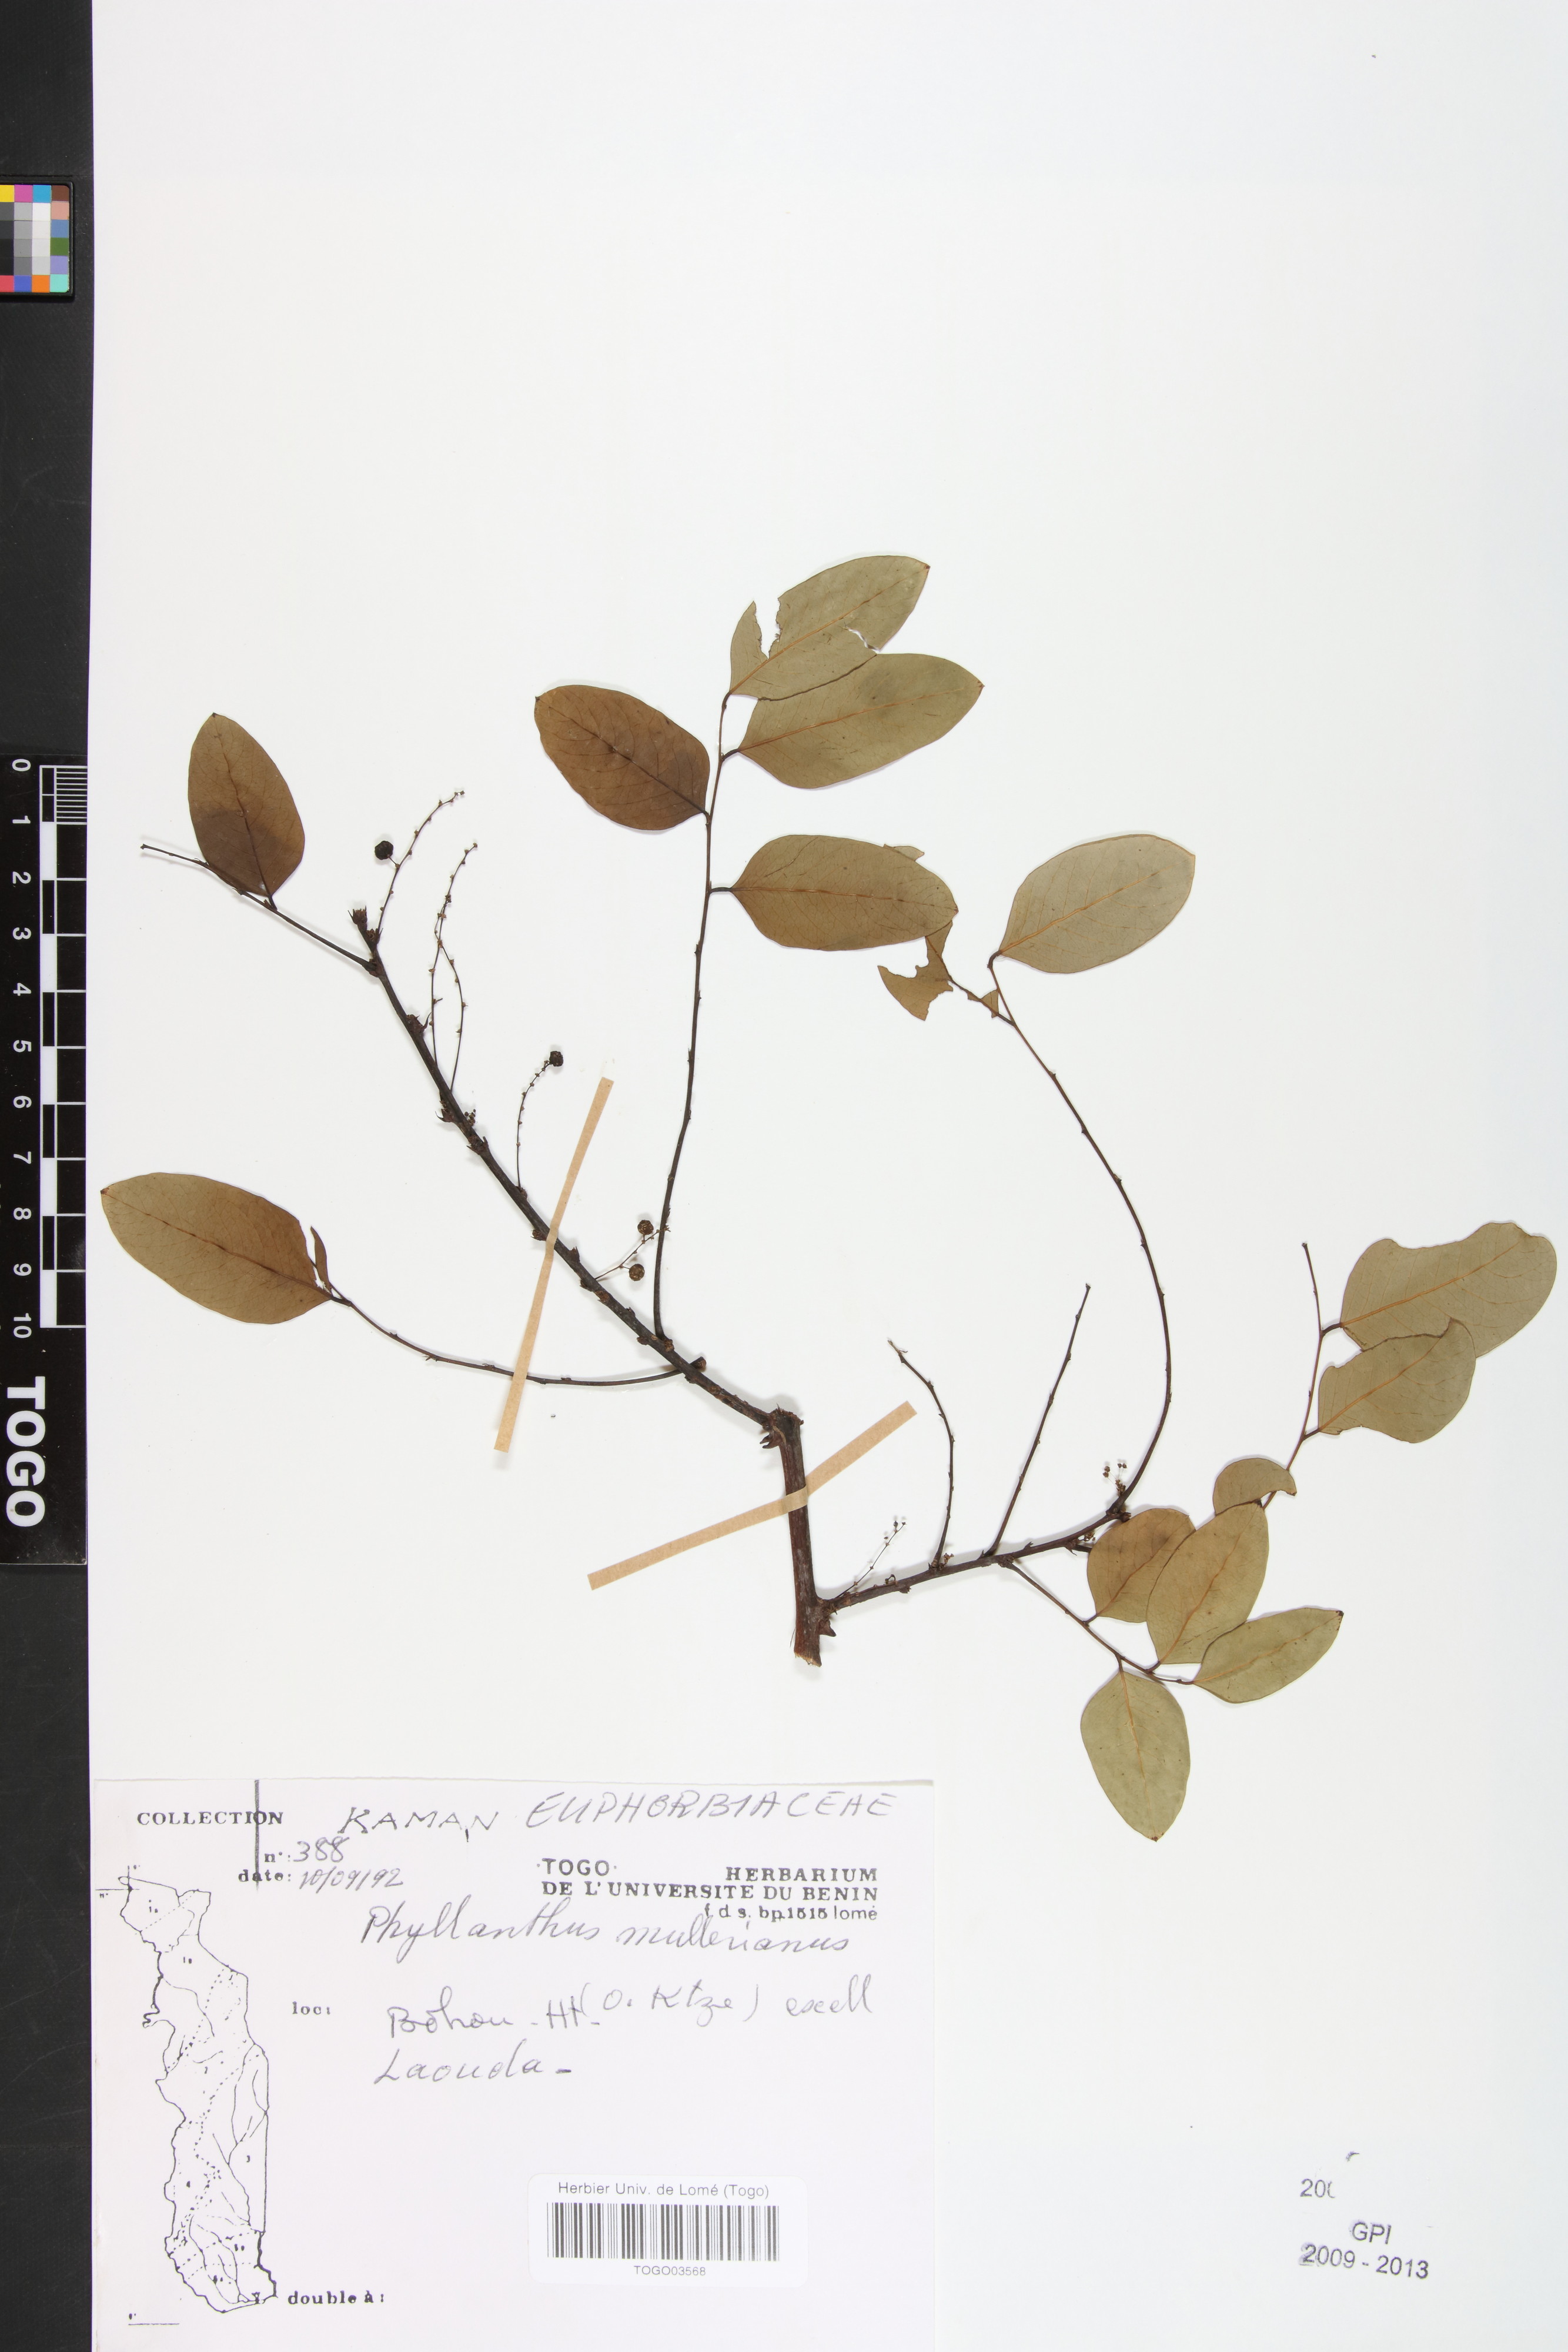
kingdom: Plantae
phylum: Tracheophyta
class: Magnoliopsida
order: Malpighiales
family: Phyllanthaceae
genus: Phyllanthus
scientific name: Phyllanthus muellerianus
